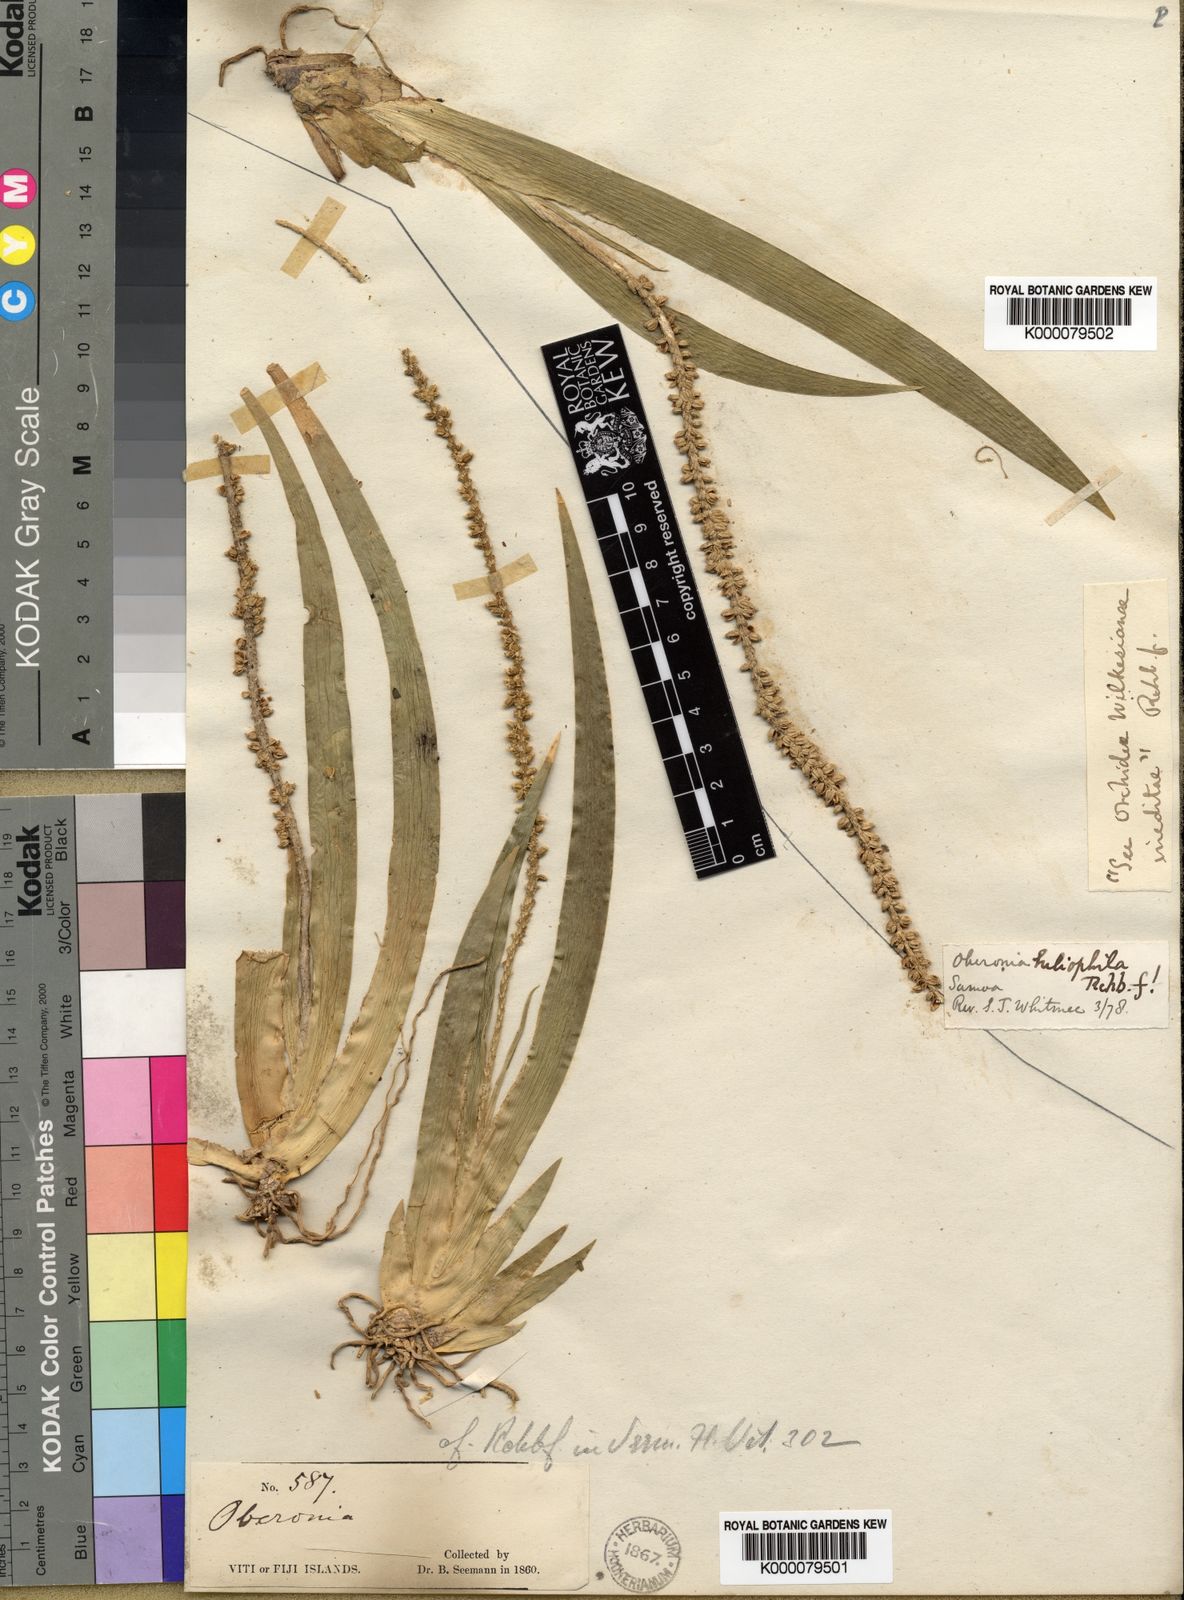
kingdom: Plantae
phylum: Tracheophyta
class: Liliopsida
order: Asparagales
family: Orchidaceae
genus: Oberonia
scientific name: Oberonia heliophila
